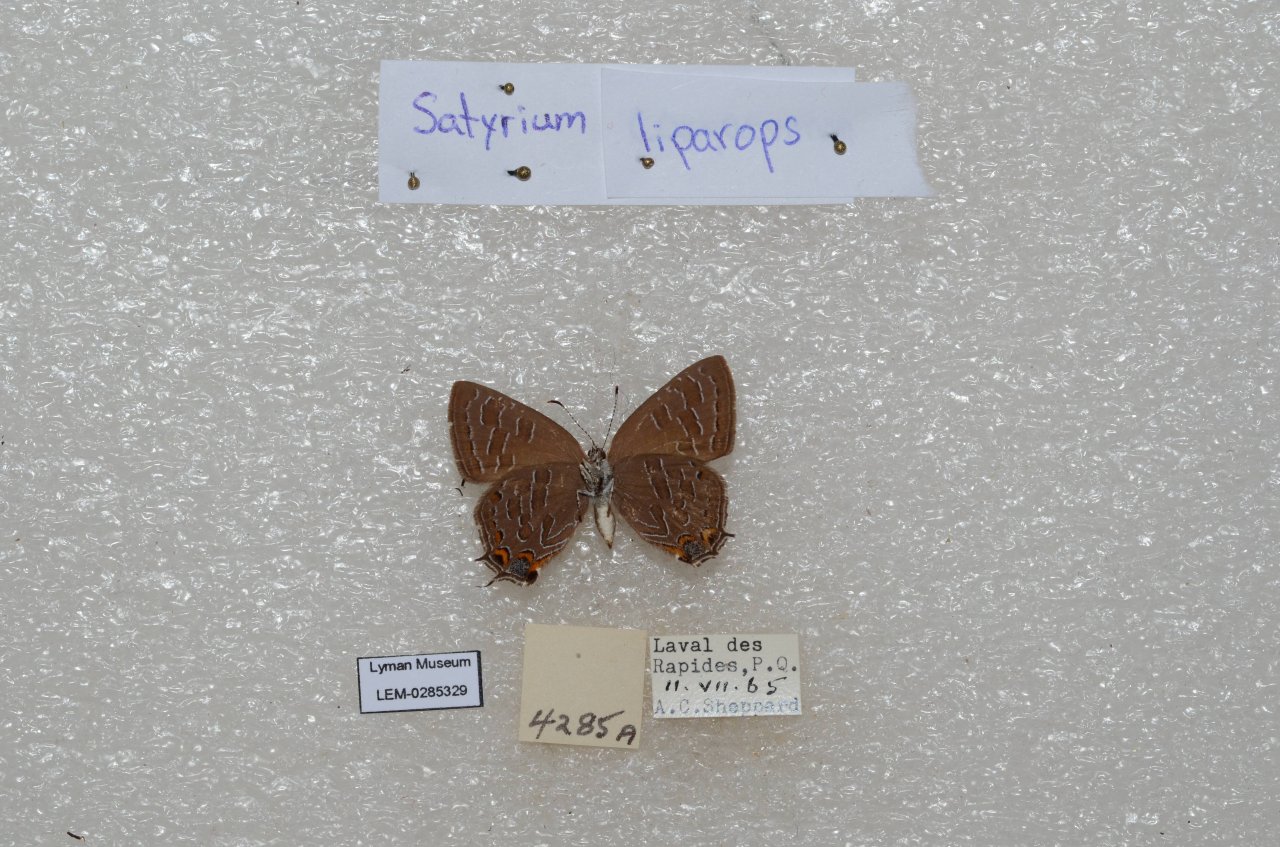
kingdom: Animalia
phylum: Arthropoda
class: Insecta
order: Lepidoptera
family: Lycaenidae
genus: Satyrium
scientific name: Satyrium liparops
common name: Striped Hairstreak
